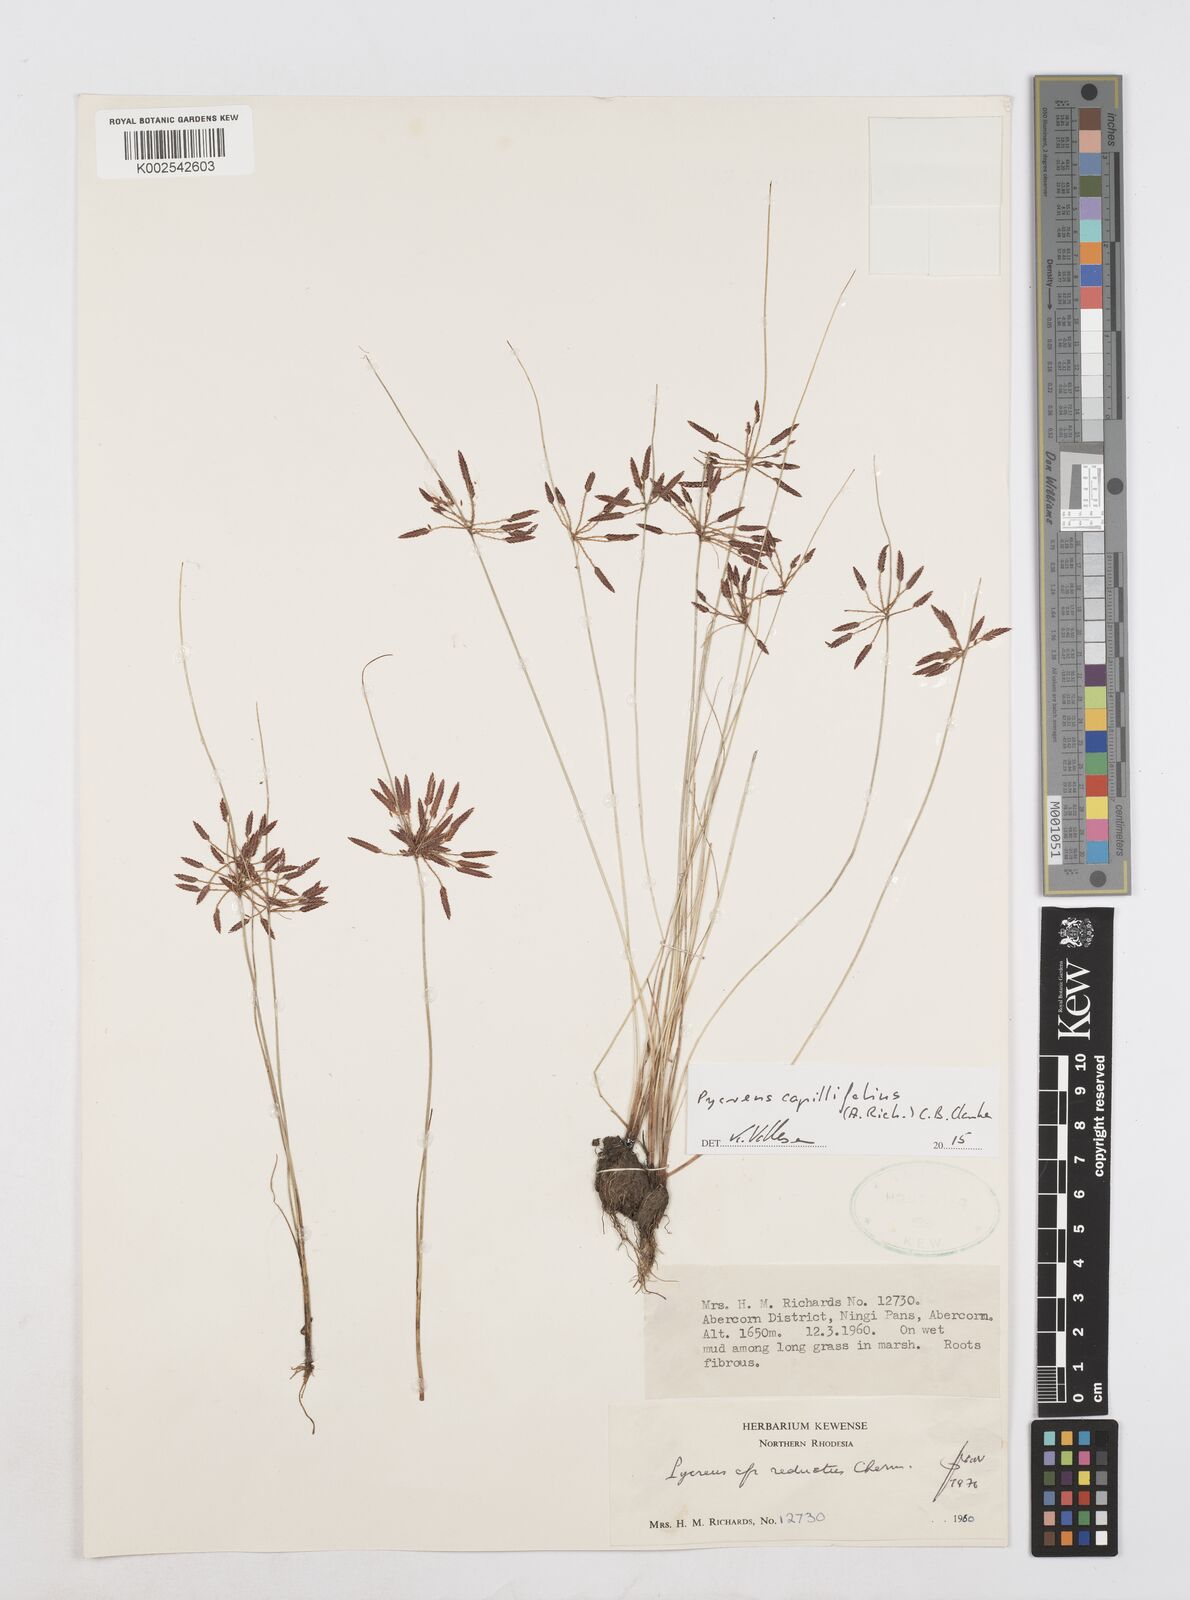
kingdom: Plantae
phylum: Tracheophyta
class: Liliopsida
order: Poales
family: Cyperaceae
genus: Cyperus
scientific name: Cyperus capillifolius
